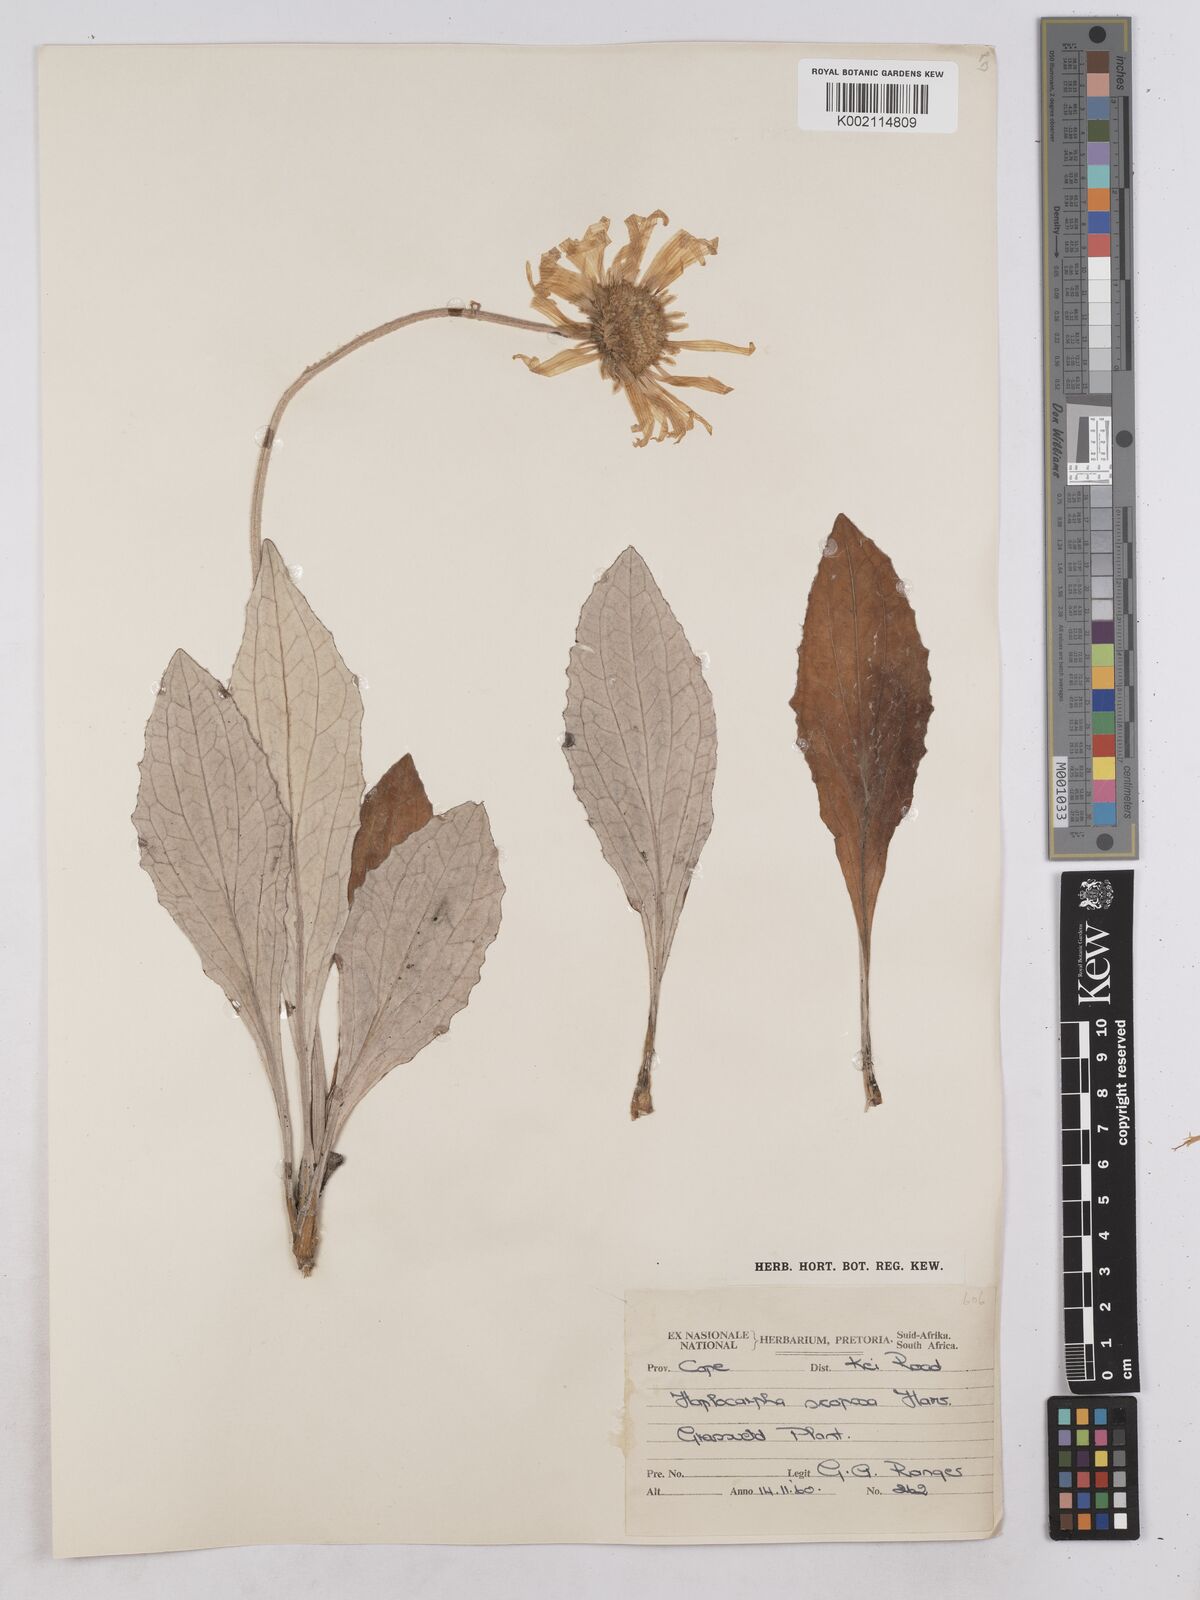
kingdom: Plantae
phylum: Tracheophyta
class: Magnoliopsida
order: Asterales
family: Asteraceae
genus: Haplocarpha
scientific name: Haplocarpha scaposa
